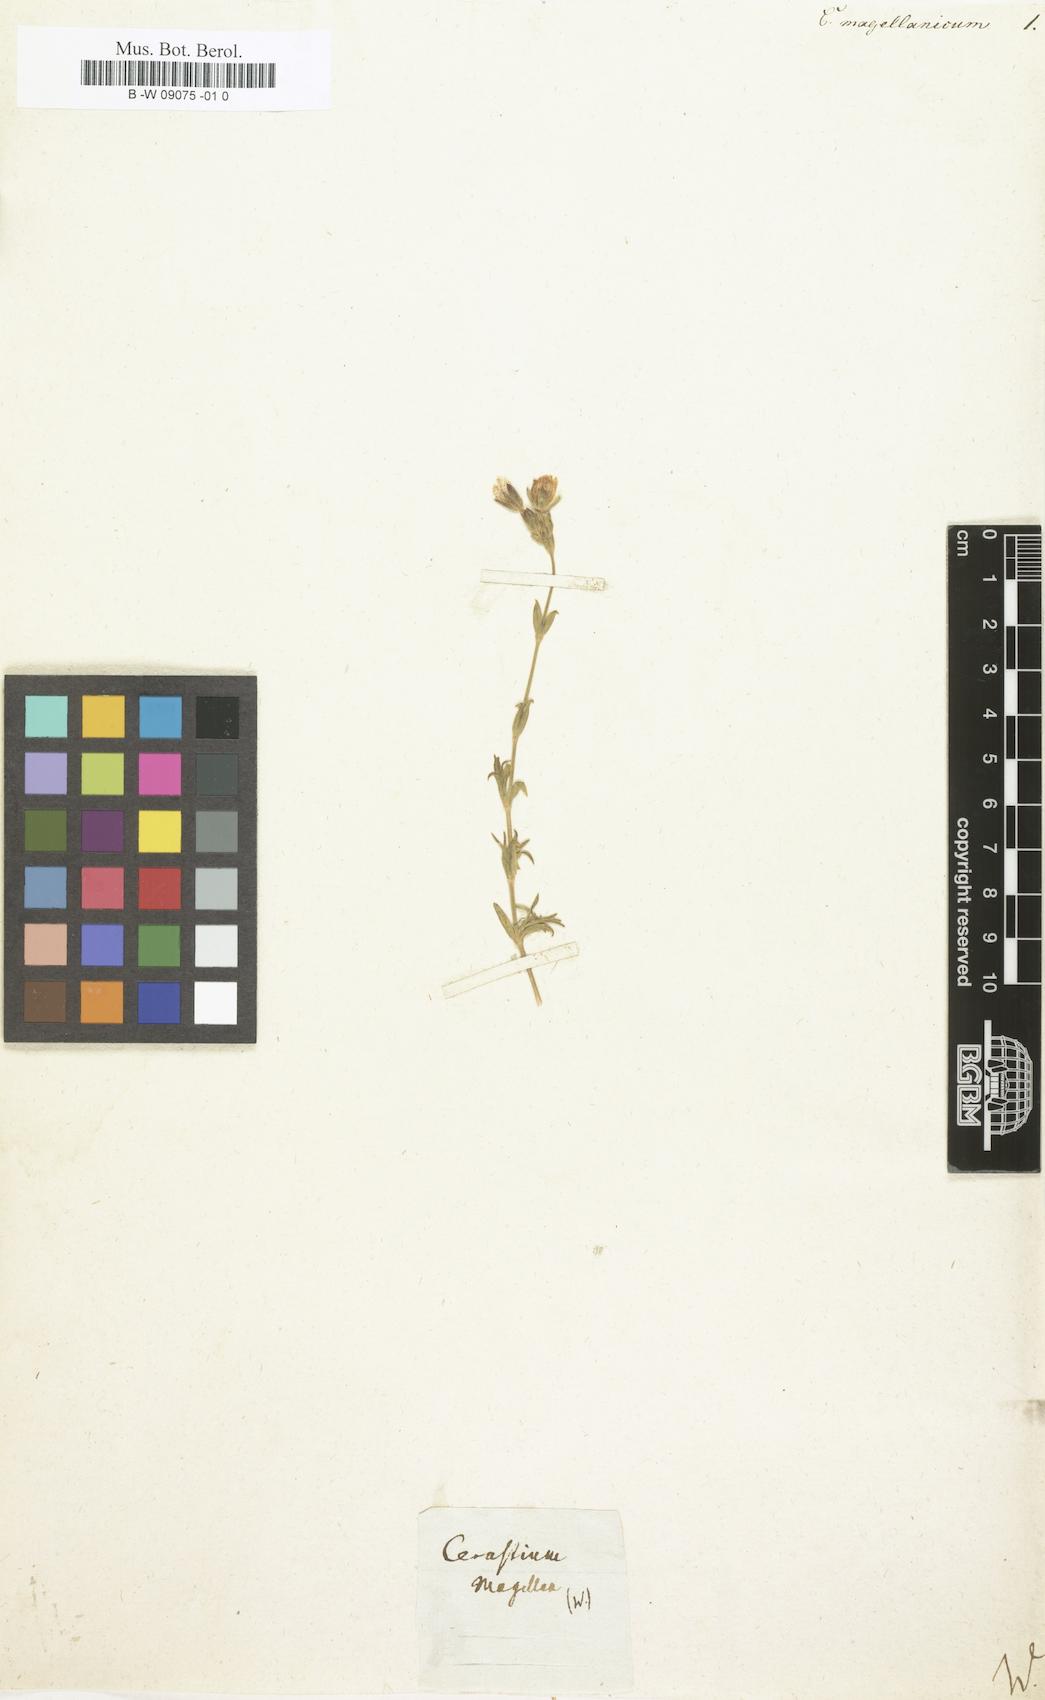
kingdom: Plantae
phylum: Tracheophyta
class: Magnoliopsida
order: Caryophyllales
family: Caryophyllaceae
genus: Cerastium
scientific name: Cerastium fuegianum
